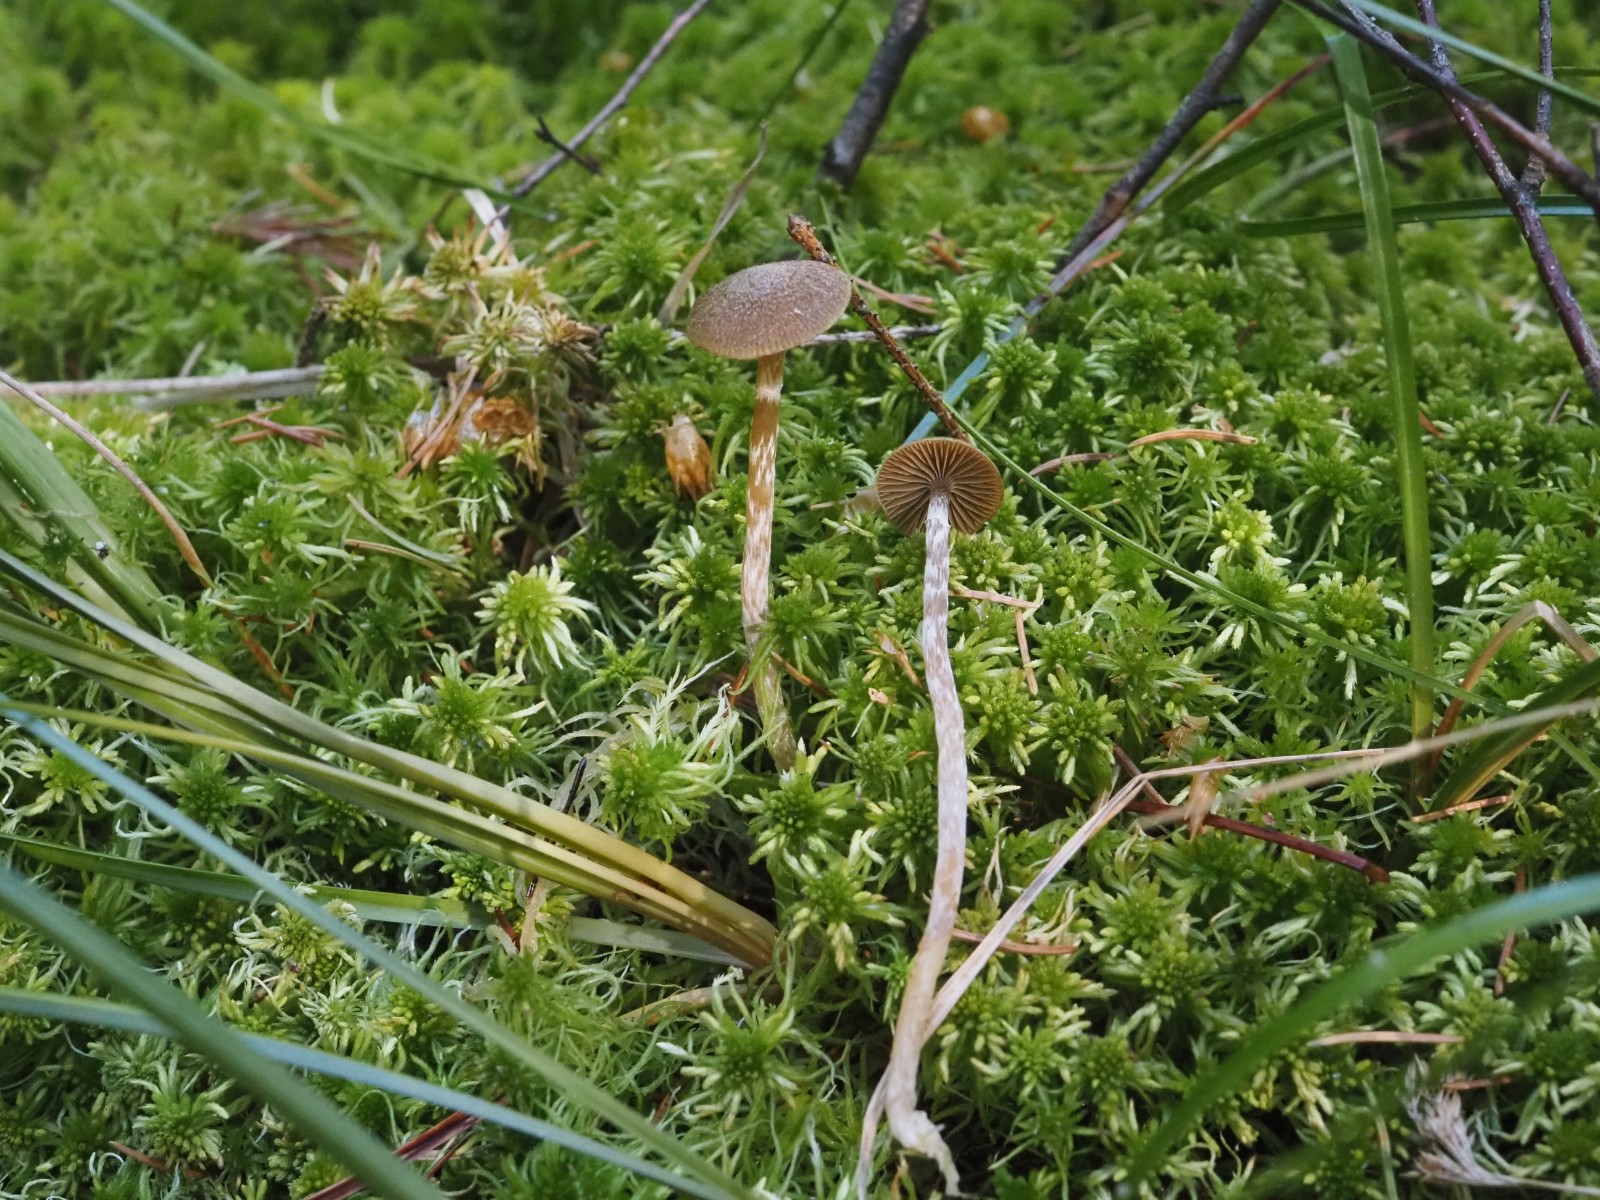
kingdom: Fungi
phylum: Basidiomycota
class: Agaricomycetes
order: Agaricales
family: Hymenogastraceae
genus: Galerina
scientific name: Galerina paludosa
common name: mose-hjelmhat
